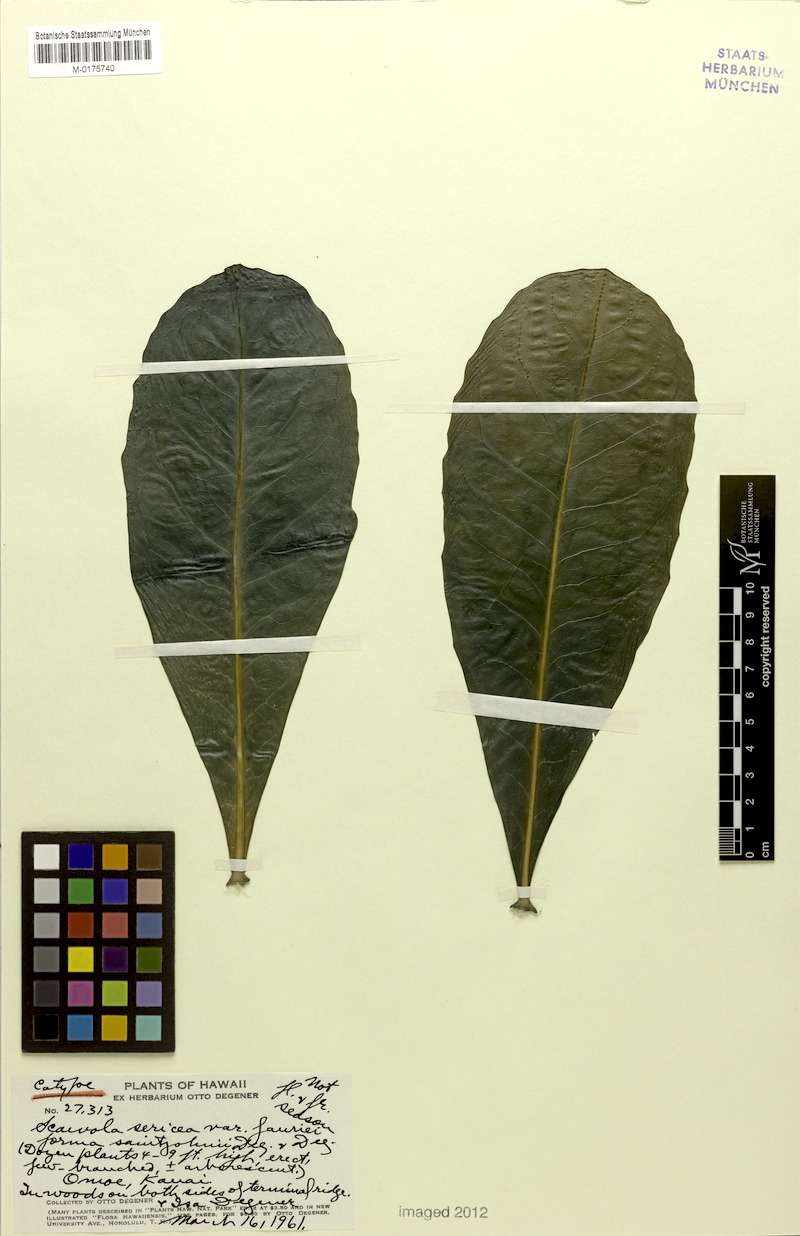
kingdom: Plantae
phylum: Tracheophyta
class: Magnoliopsida
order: Asterales
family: Goodeniaceae
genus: Scaevola
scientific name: Scaevola taccada
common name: Sea lettucetree
